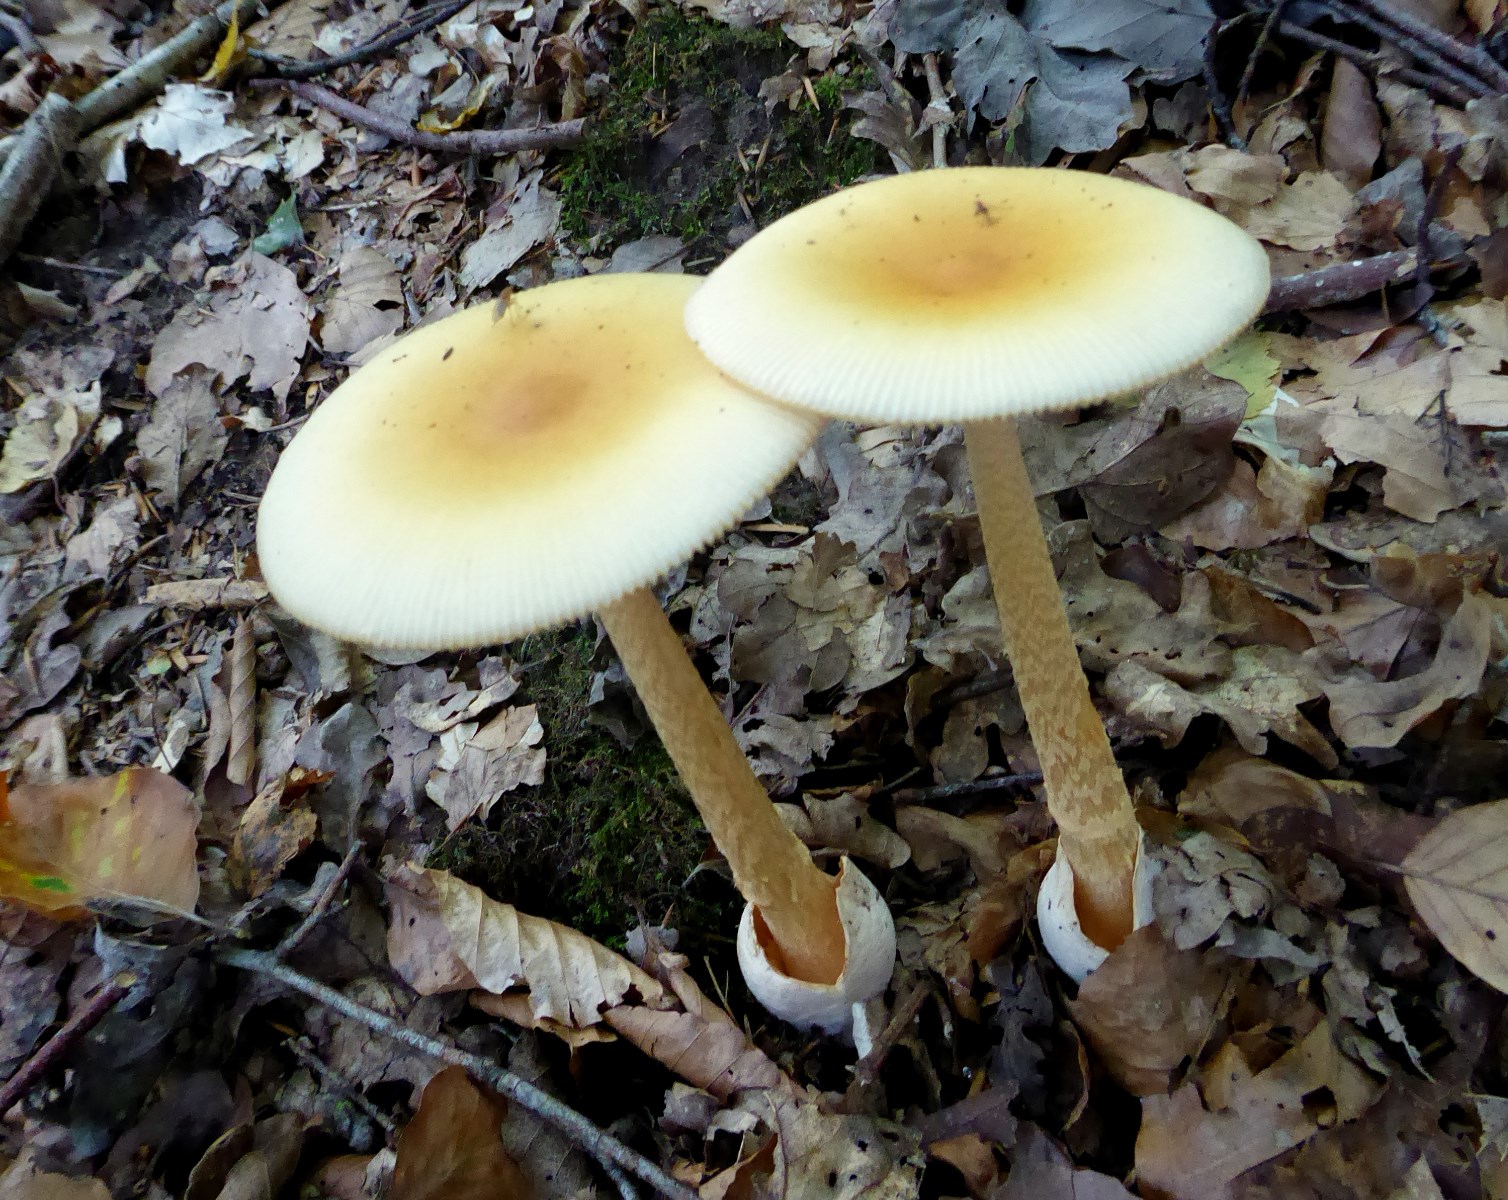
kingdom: Fungi
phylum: Basidiomycota
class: Agaricomycetes
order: Agaricales
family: Amanitaceae
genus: Amanita
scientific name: Amanita crocea
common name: gylden kam-fluesvamp
